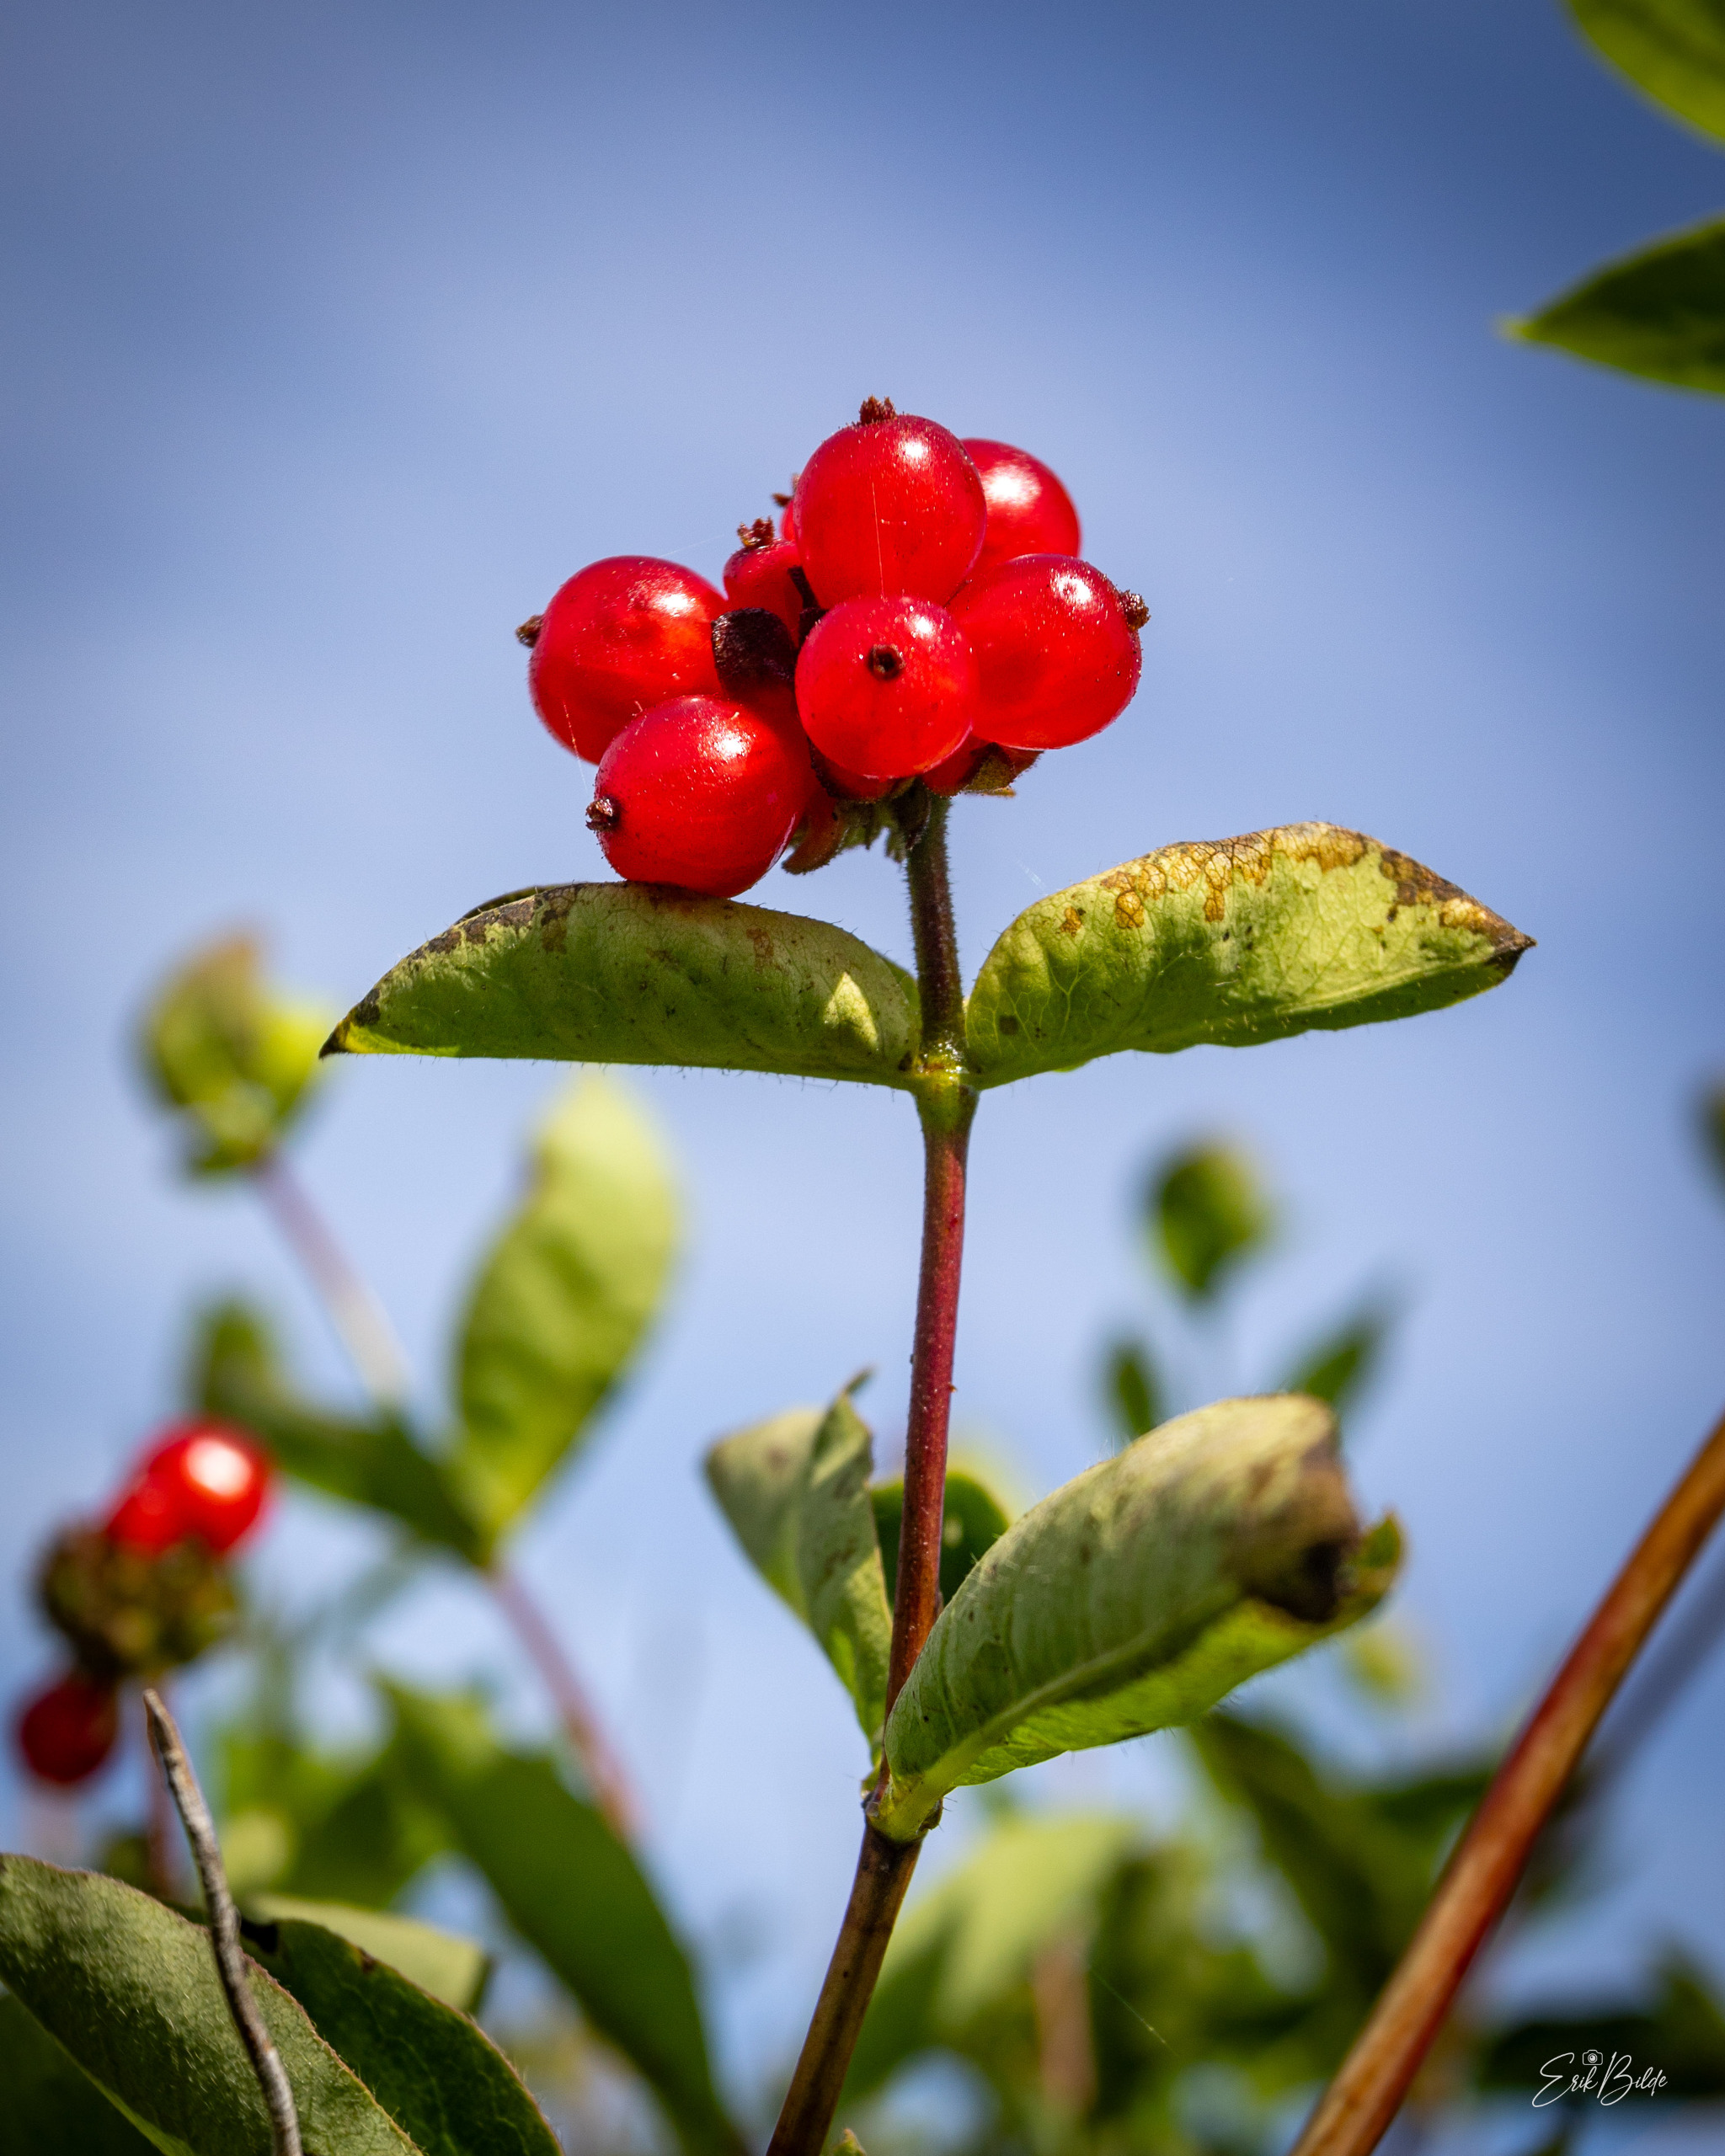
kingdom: Plantae
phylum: Tracheophyta
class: Magnoliopsida
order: Dipsacales
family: Caprifoliaceae
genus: Lonicera
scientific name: Lonicera periclymenum
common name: Almindelig gedeblad
